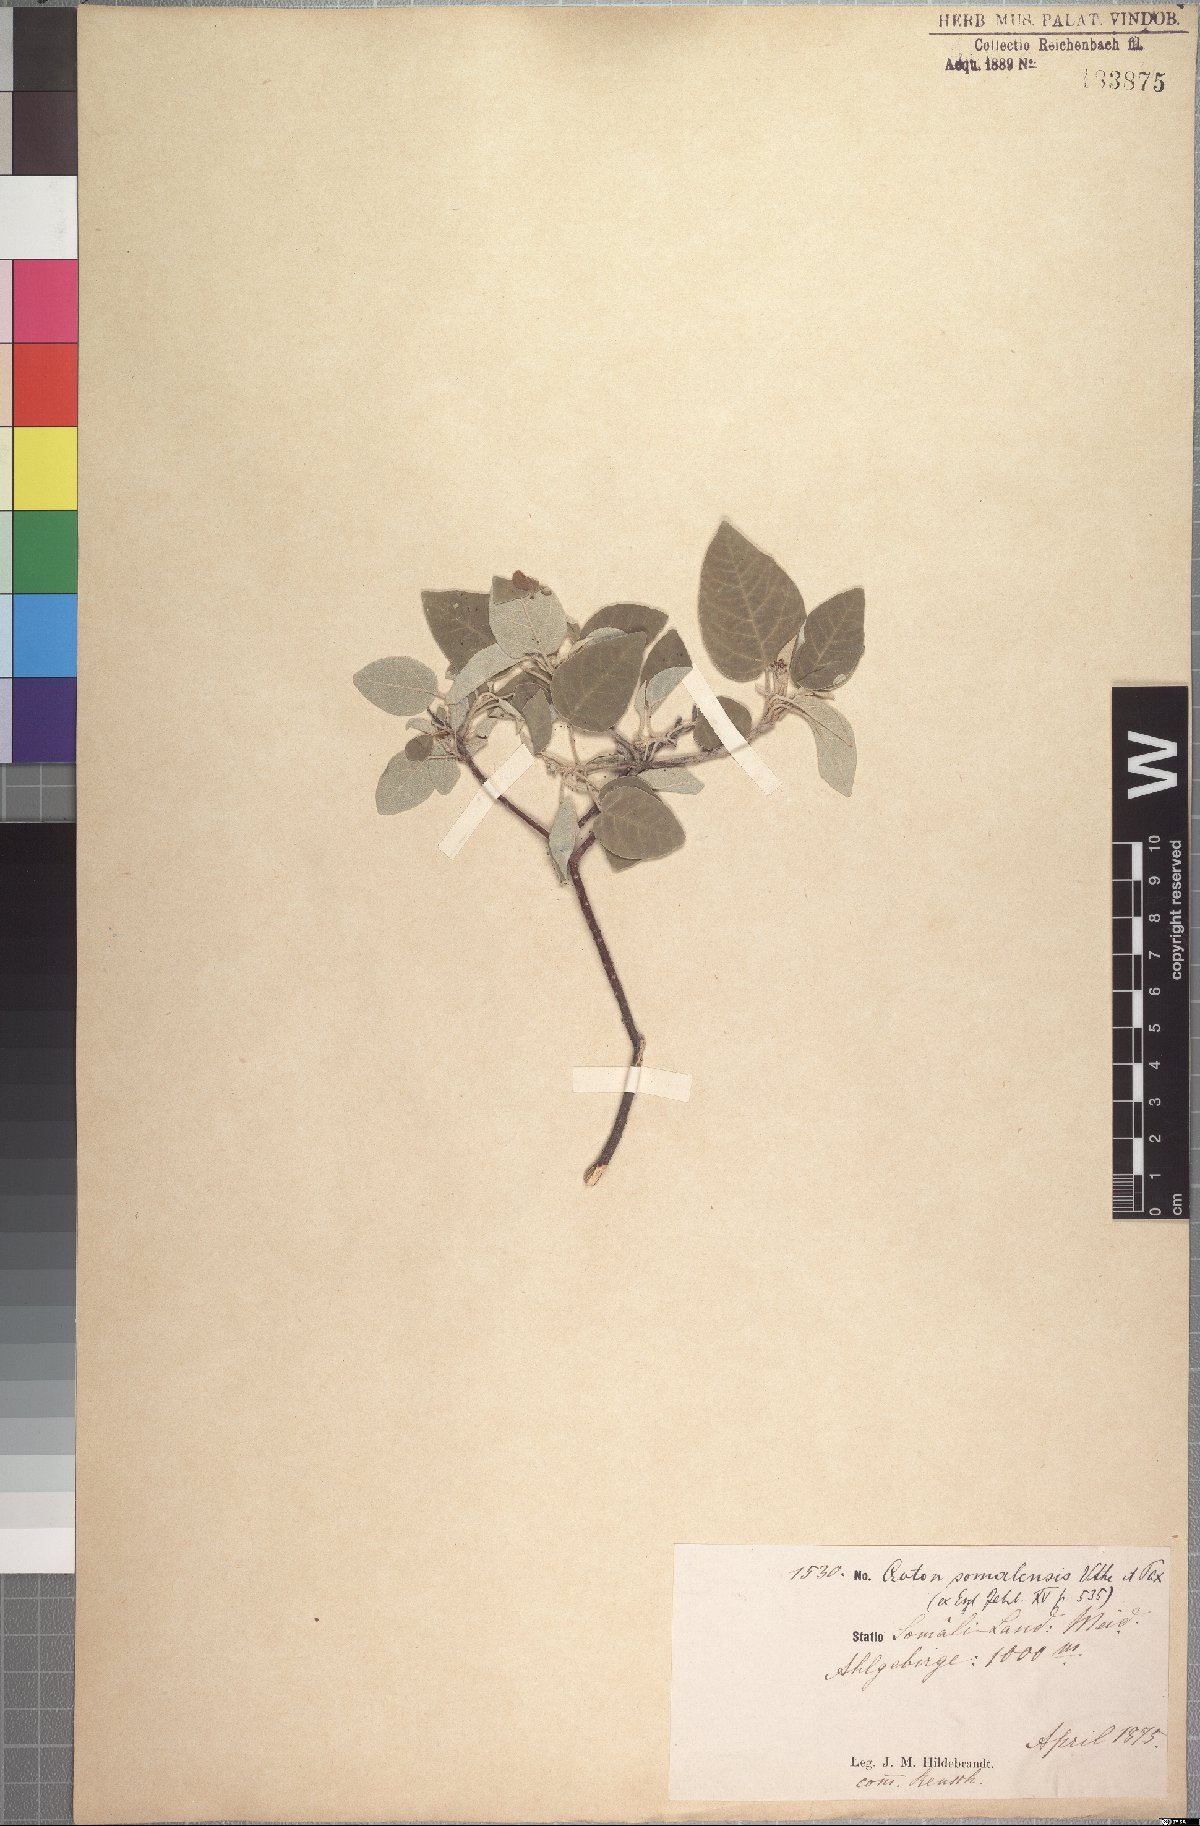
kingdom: Plantae
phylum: Tracheophyta
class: Magnoliopsida
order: Malpighiales
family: Euphorbiaceae
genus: Croton
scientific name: Croton somalensis
